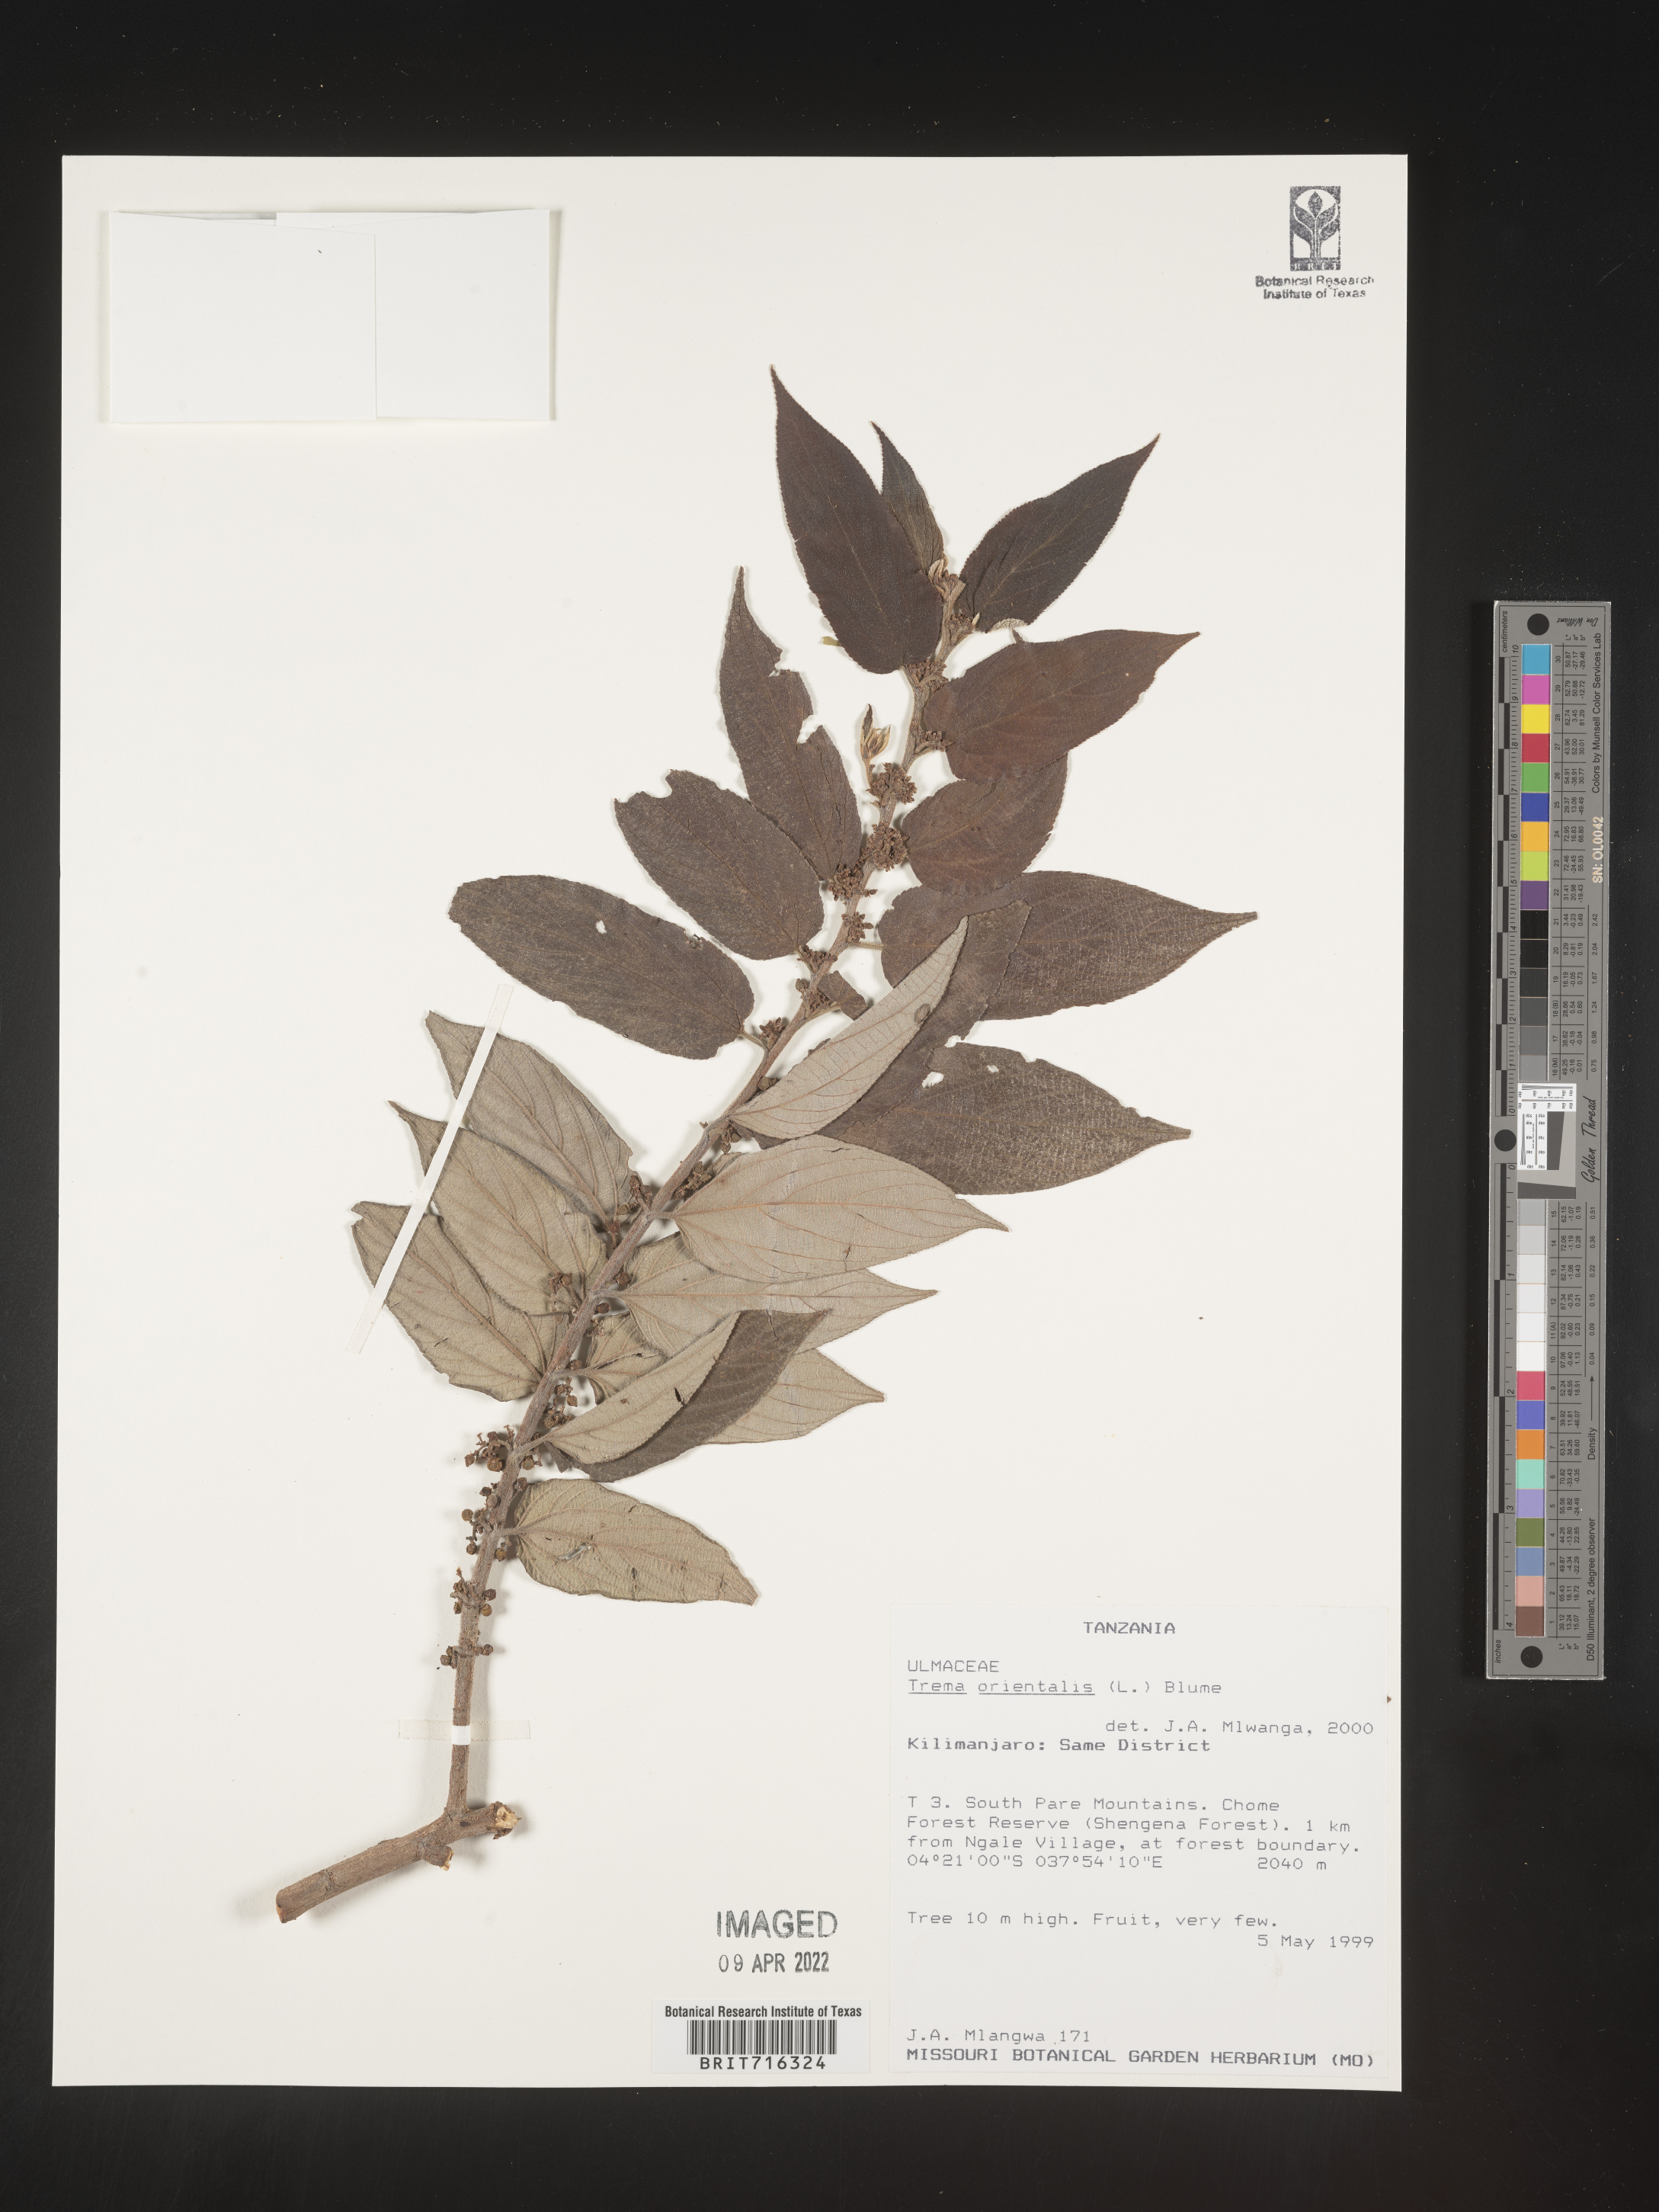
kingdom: Plantae
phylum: Tracheophyta
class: Magnoliopsida
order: Rosales
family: Cannabaceae
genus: Trema
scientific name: Trema
